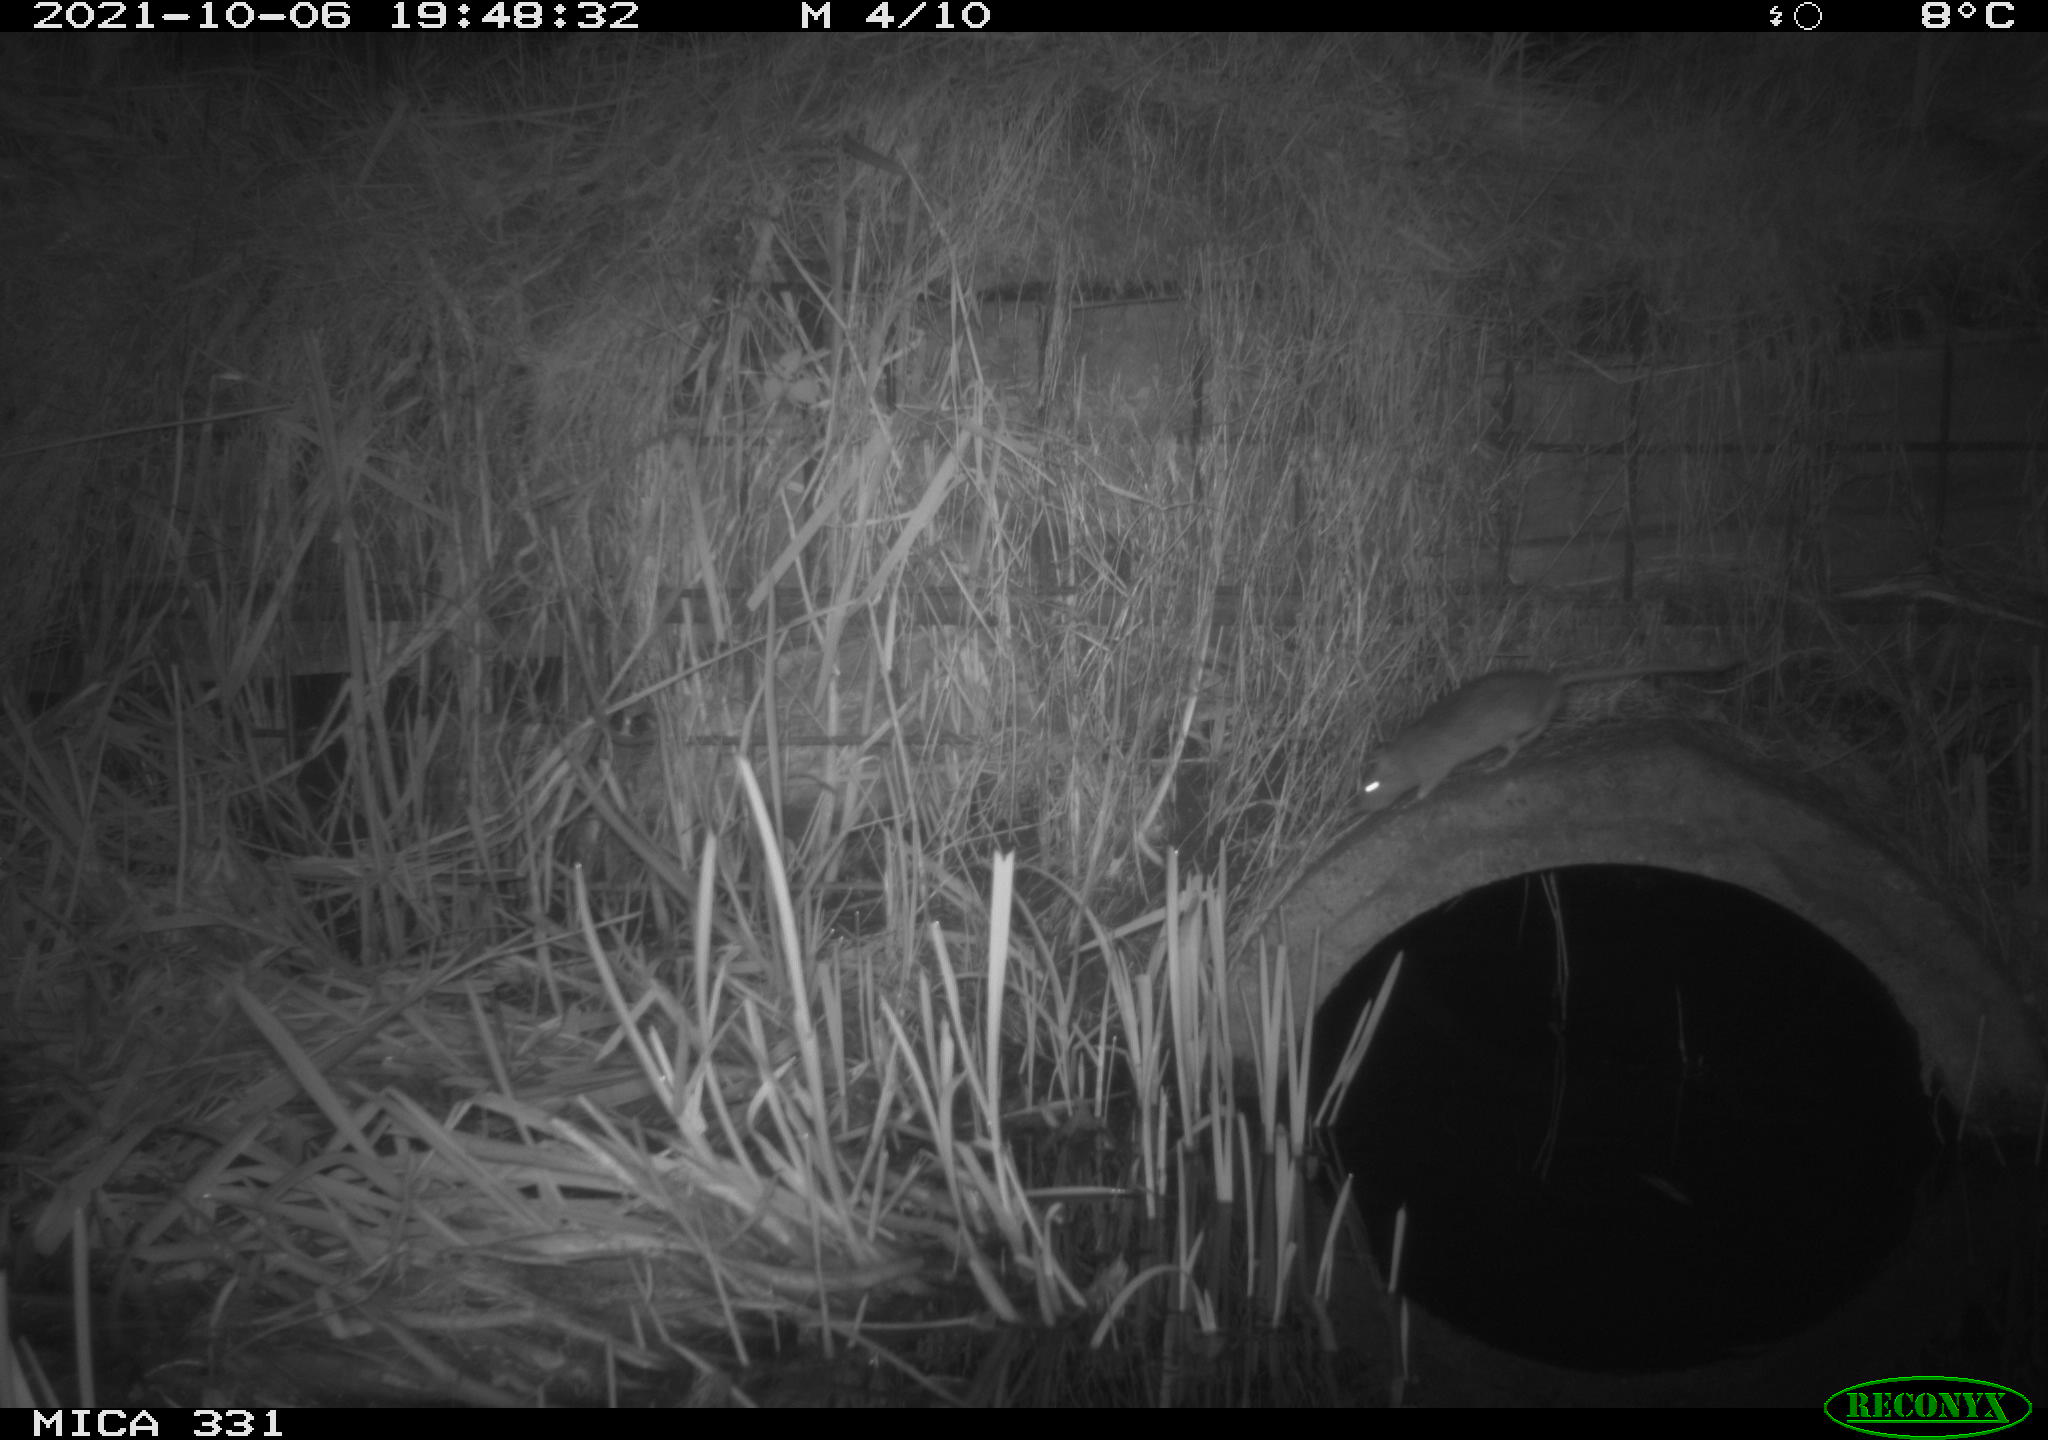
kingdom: Animalia
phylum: Chordata
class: Mammalia
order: Rodentia
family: Muridae
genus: Rattus
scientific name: Rattus norvegicus
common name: Brown rat
